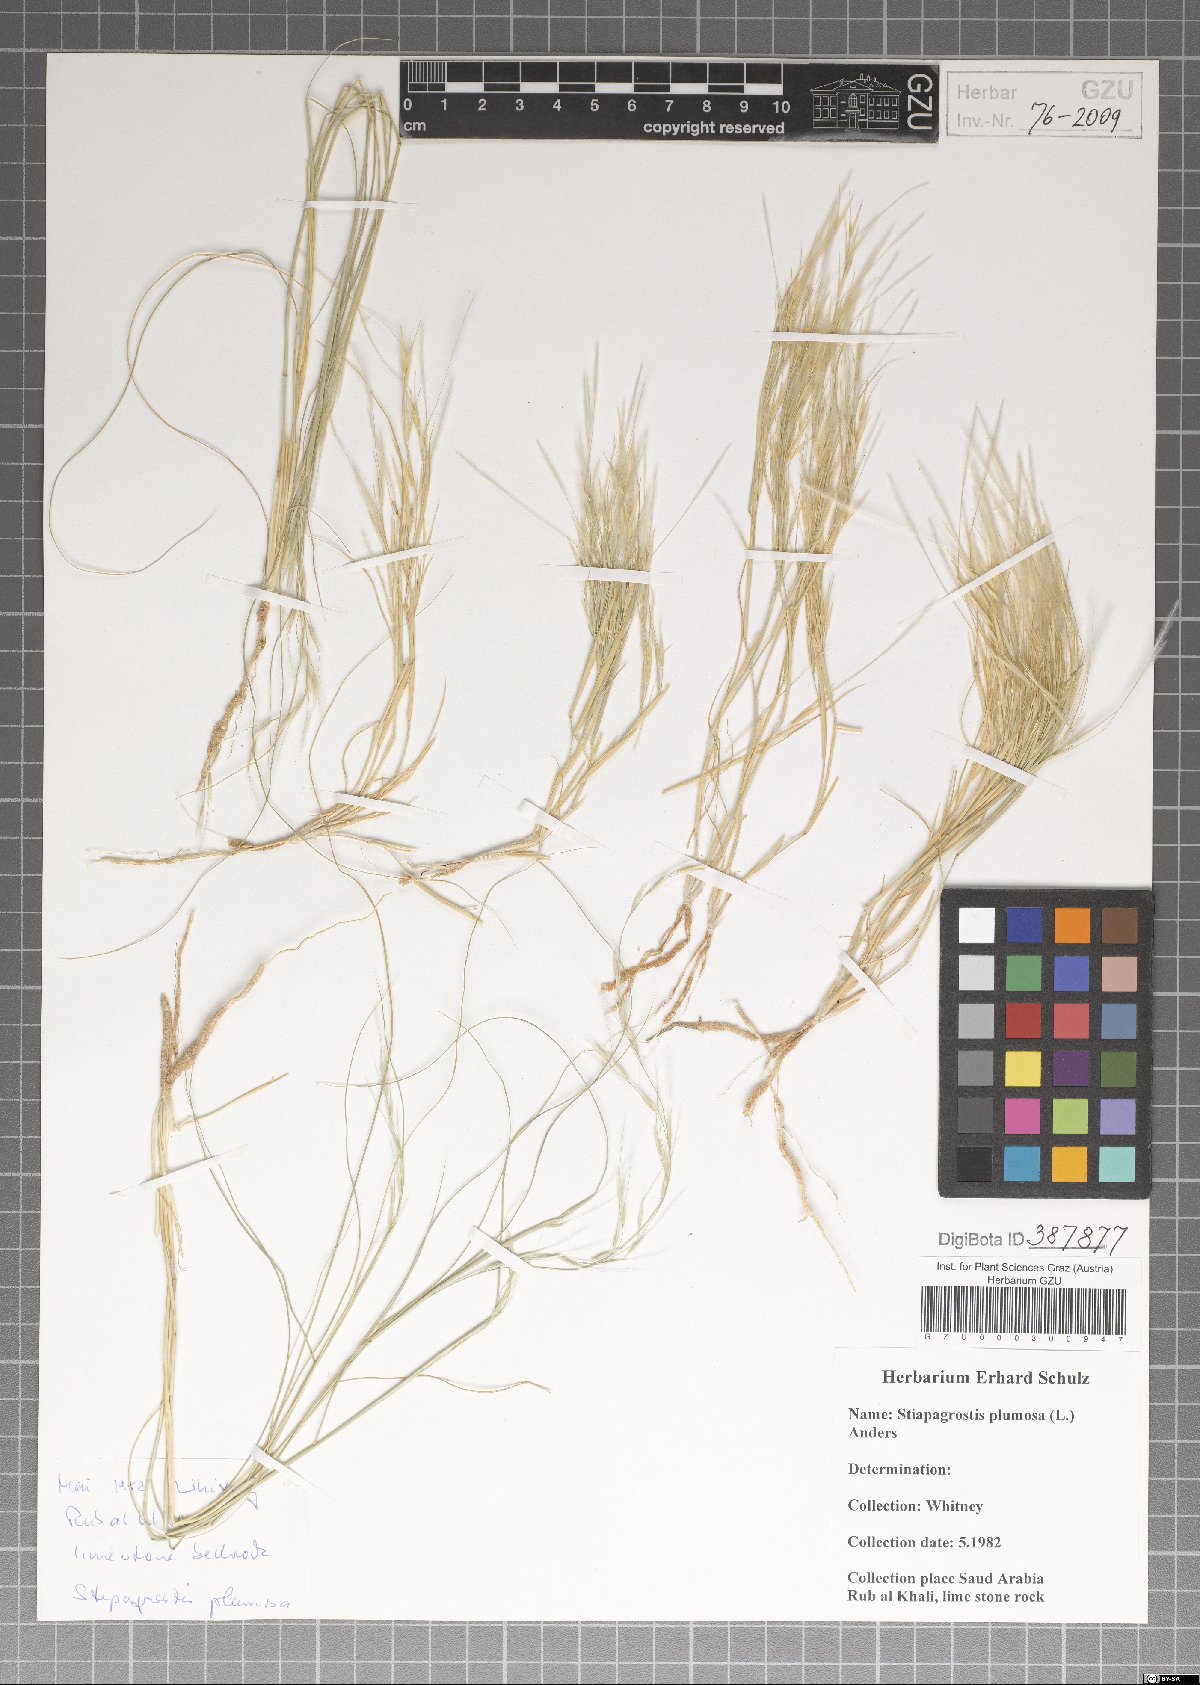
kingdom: Plantae
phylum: Tracheophyta
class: Liliopsida
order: Poales
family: Poaceae
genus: Stipagrostis
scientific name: Stipagrostis plumosa
